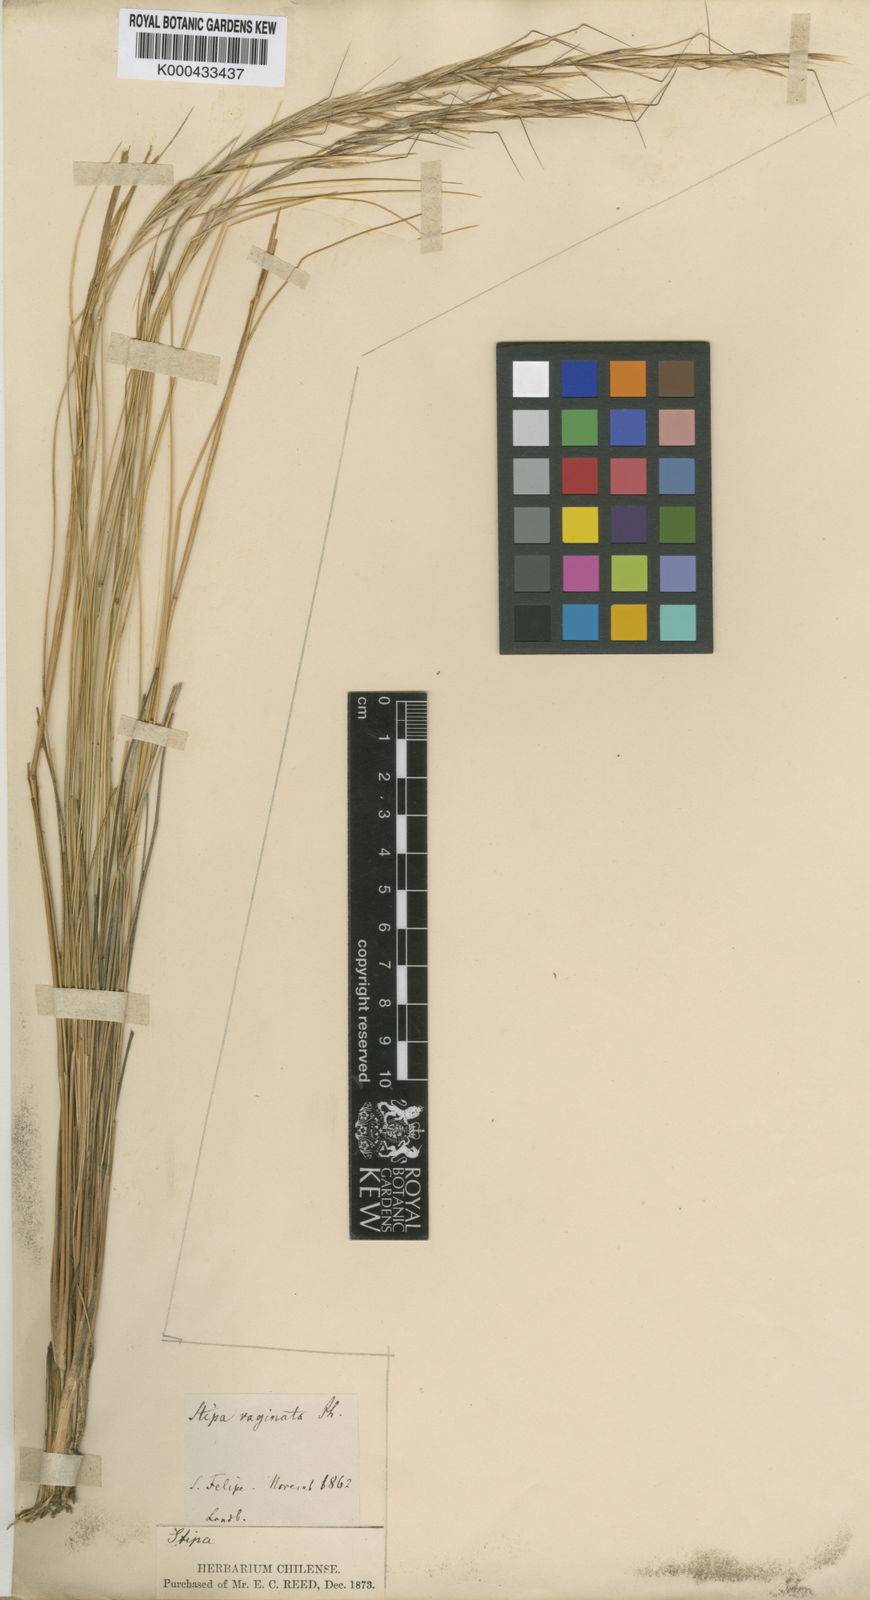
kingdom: Plantae
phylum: Tracheophyta
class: Liliopsida
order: Poales
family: Poaceae
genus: Pappostipa
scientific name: Pappostipa speciosa
